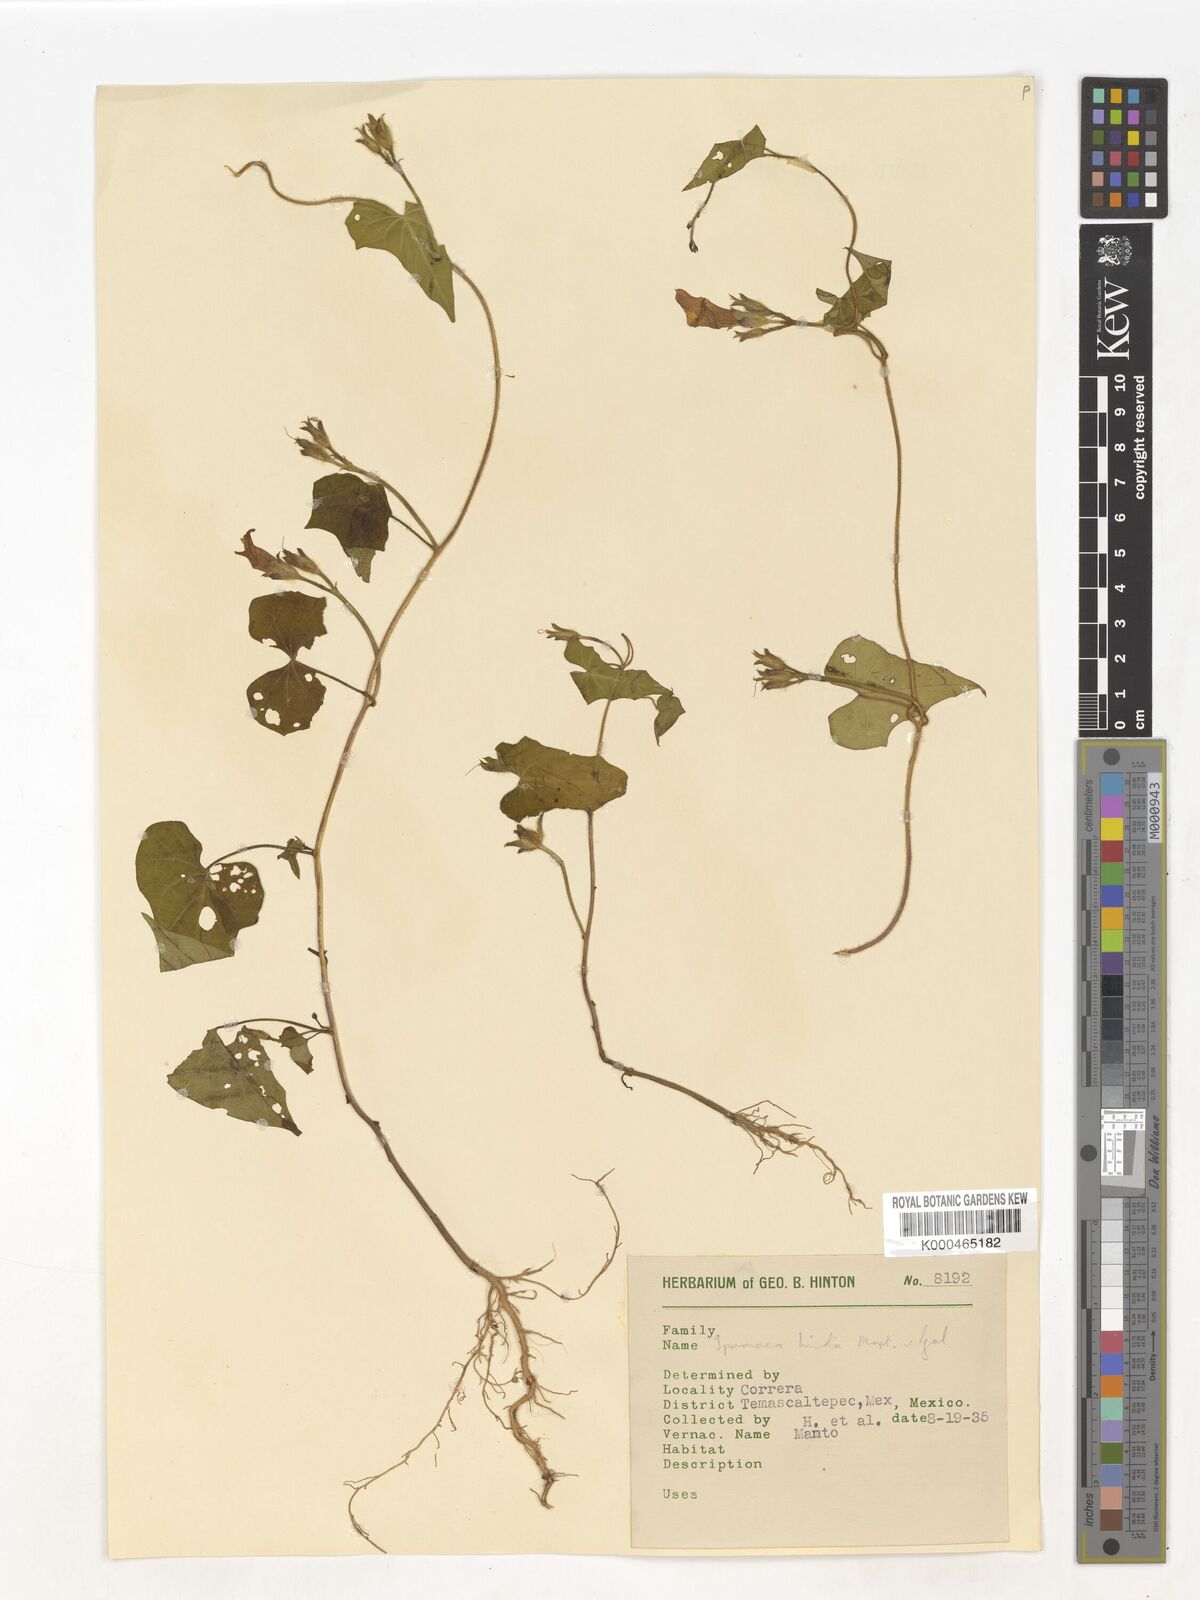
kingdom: Plantae
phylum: Tracheophyta
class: Magnoliopsida
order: Solanales
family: Convolvulaceae
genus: Ipomoea
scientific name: Ipomoea triloba
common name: Little-bell
